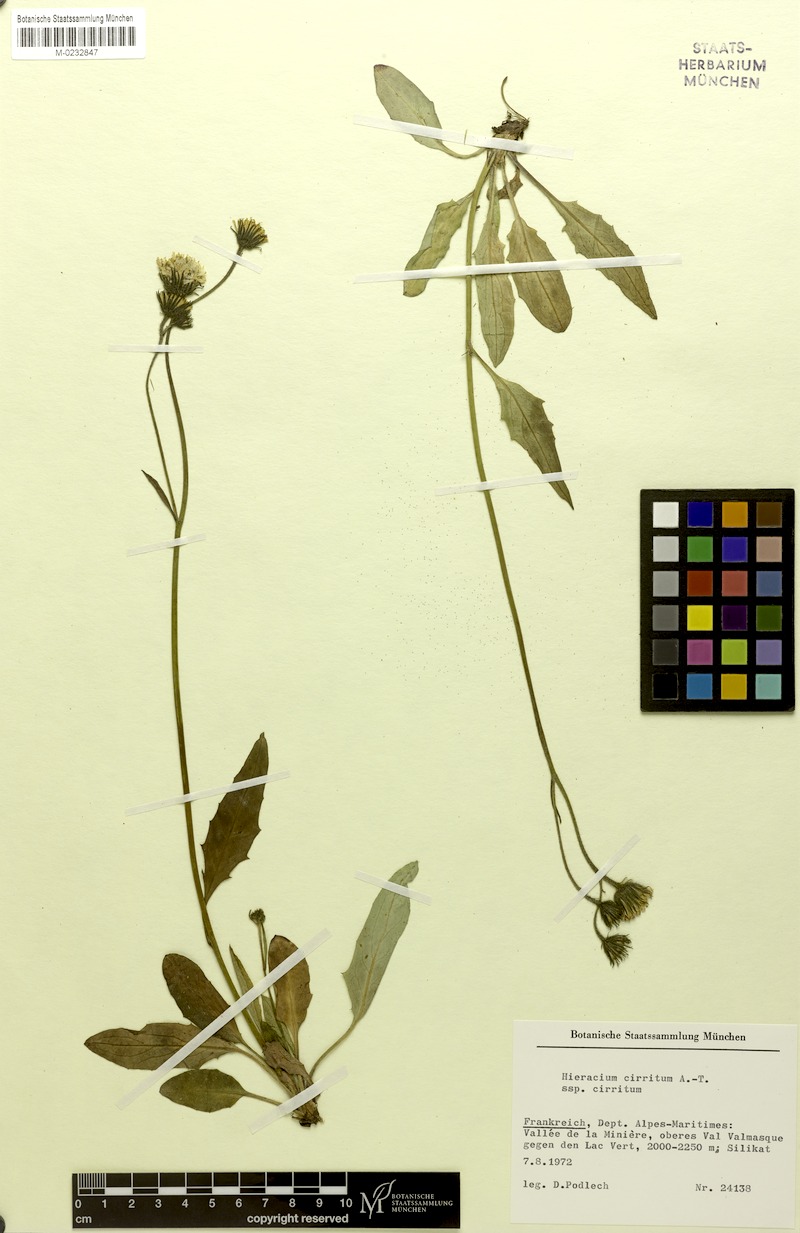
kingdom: Plantae
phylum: Tracheophyta
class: Magnoliopsida
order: Asterales
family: Asteraceae
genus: Hieracium
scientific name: Hieracium cirritum
